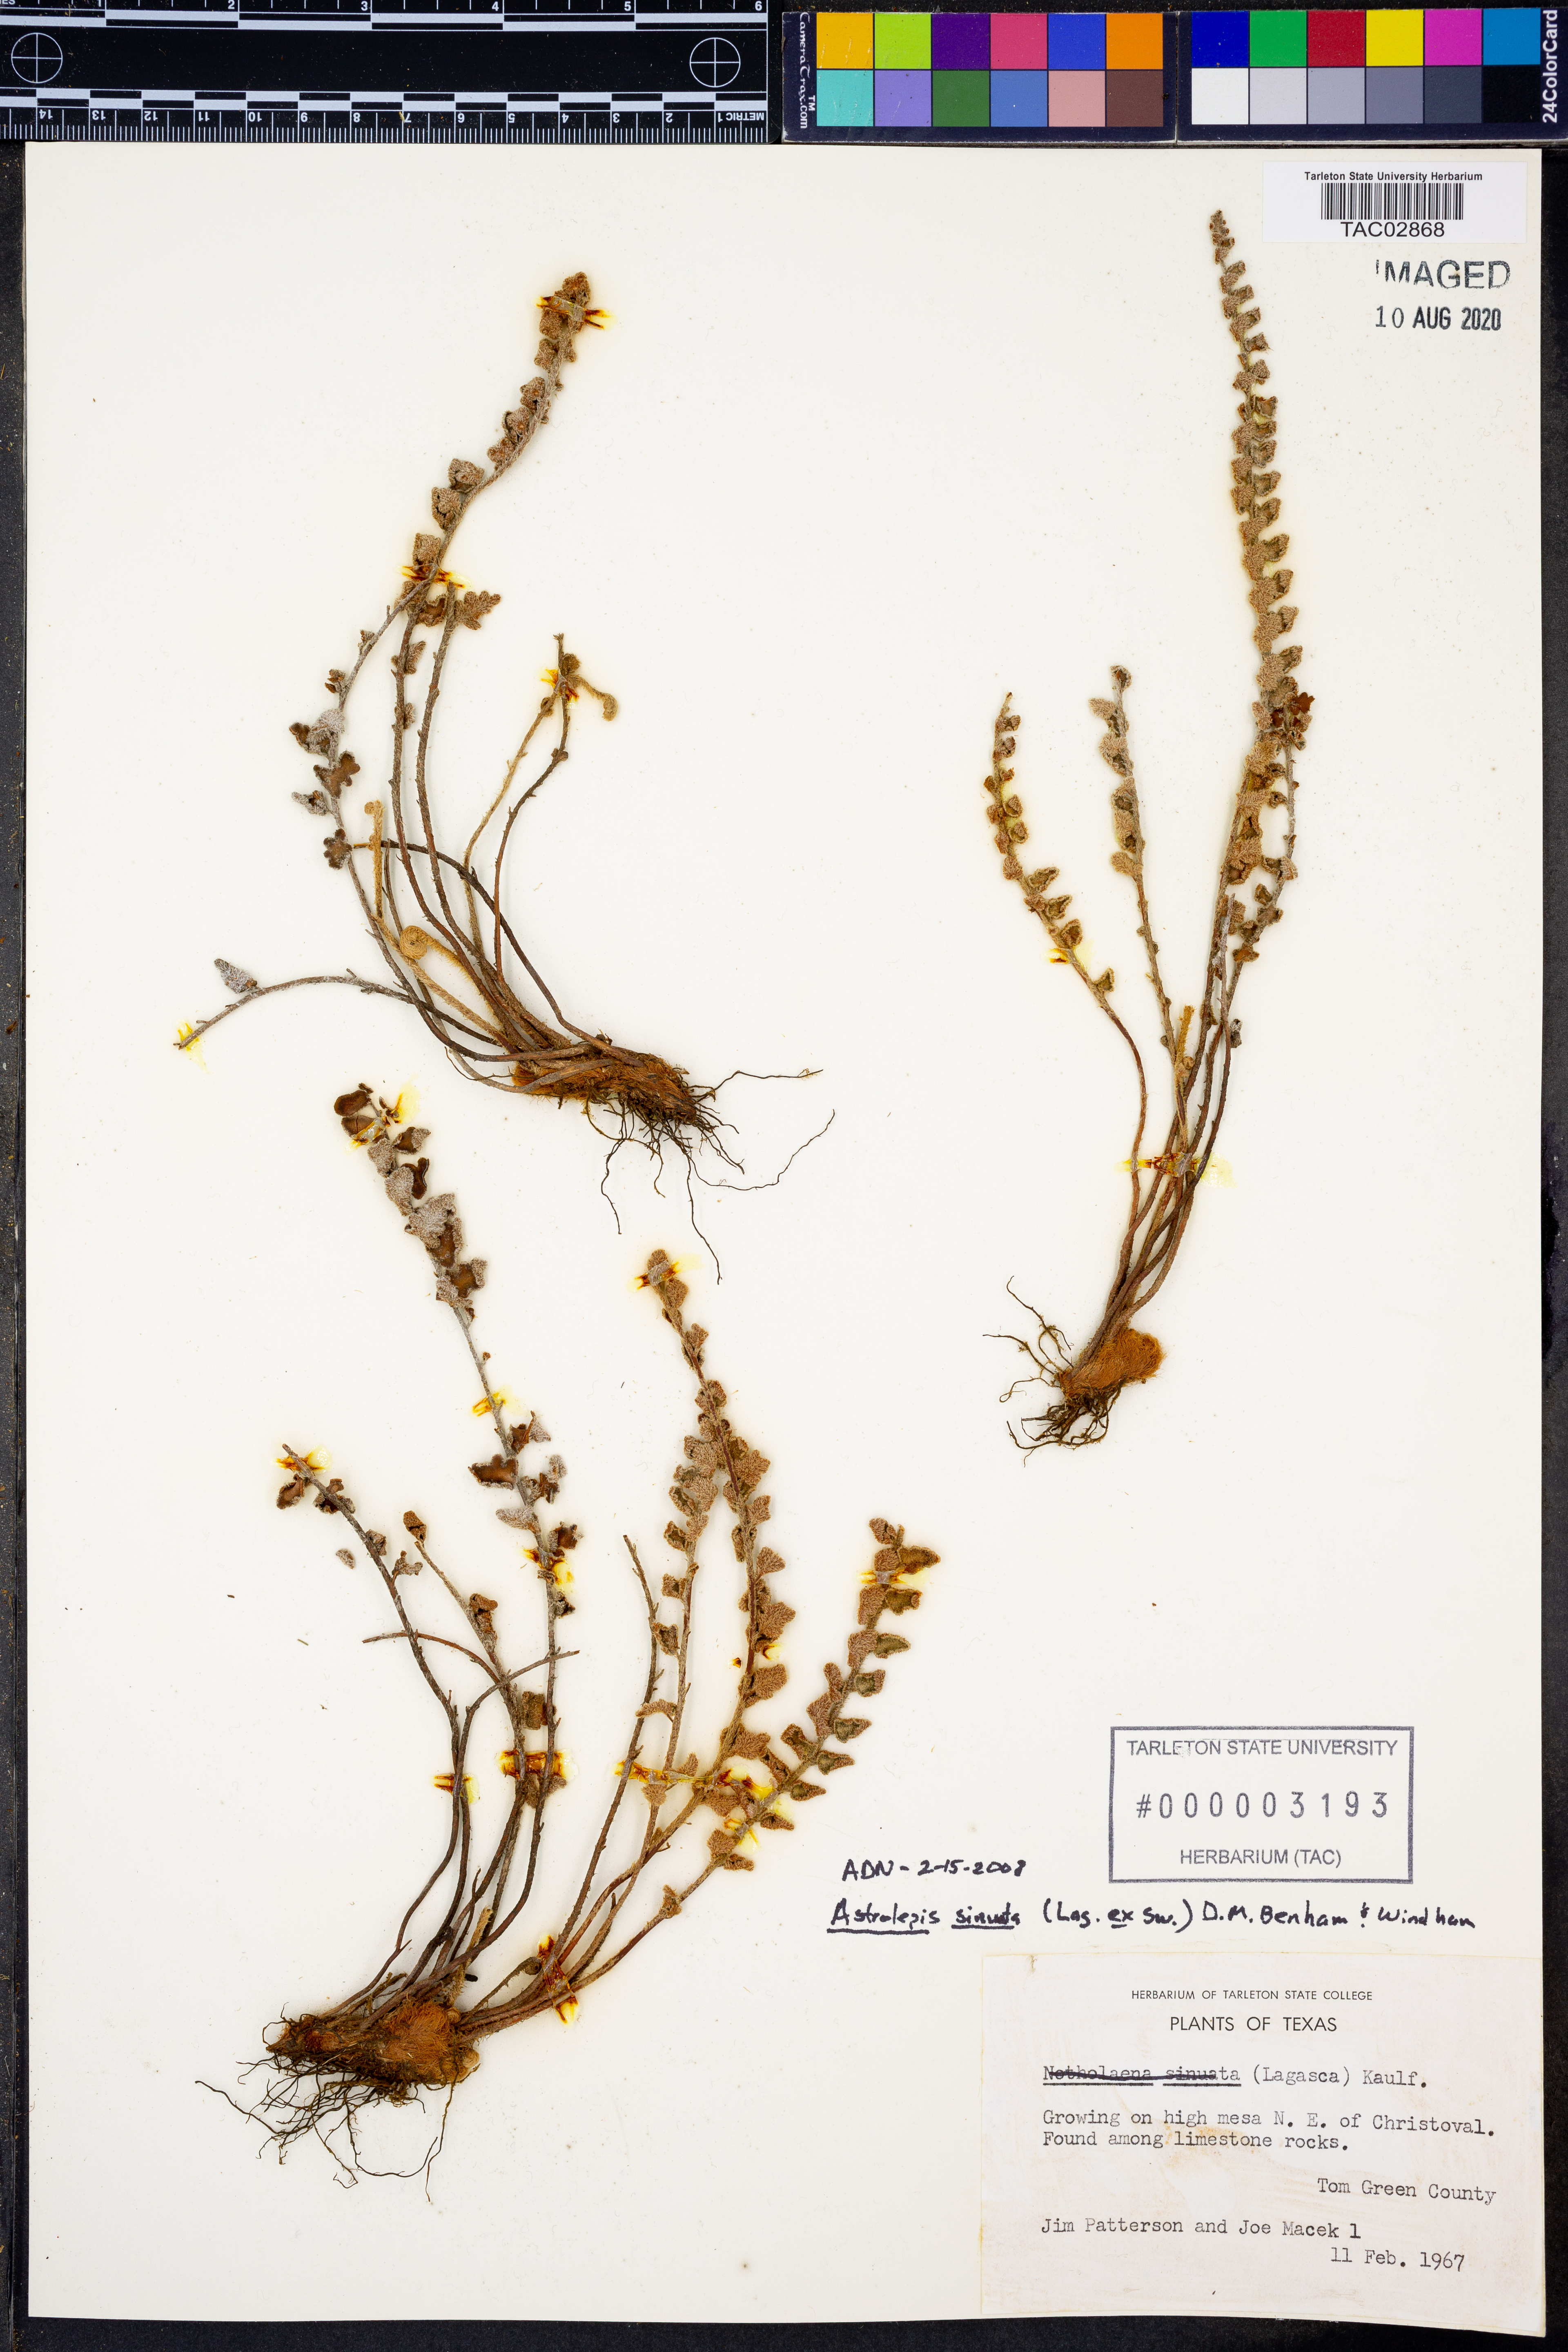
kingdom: Plantae
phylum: Tracheophyta
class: Polypodiopsida
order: Polypodiales
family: Pteridaceae
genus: Astrolepis
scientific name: Astrolepis sinuata
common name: Wavy scaly cloakfern
